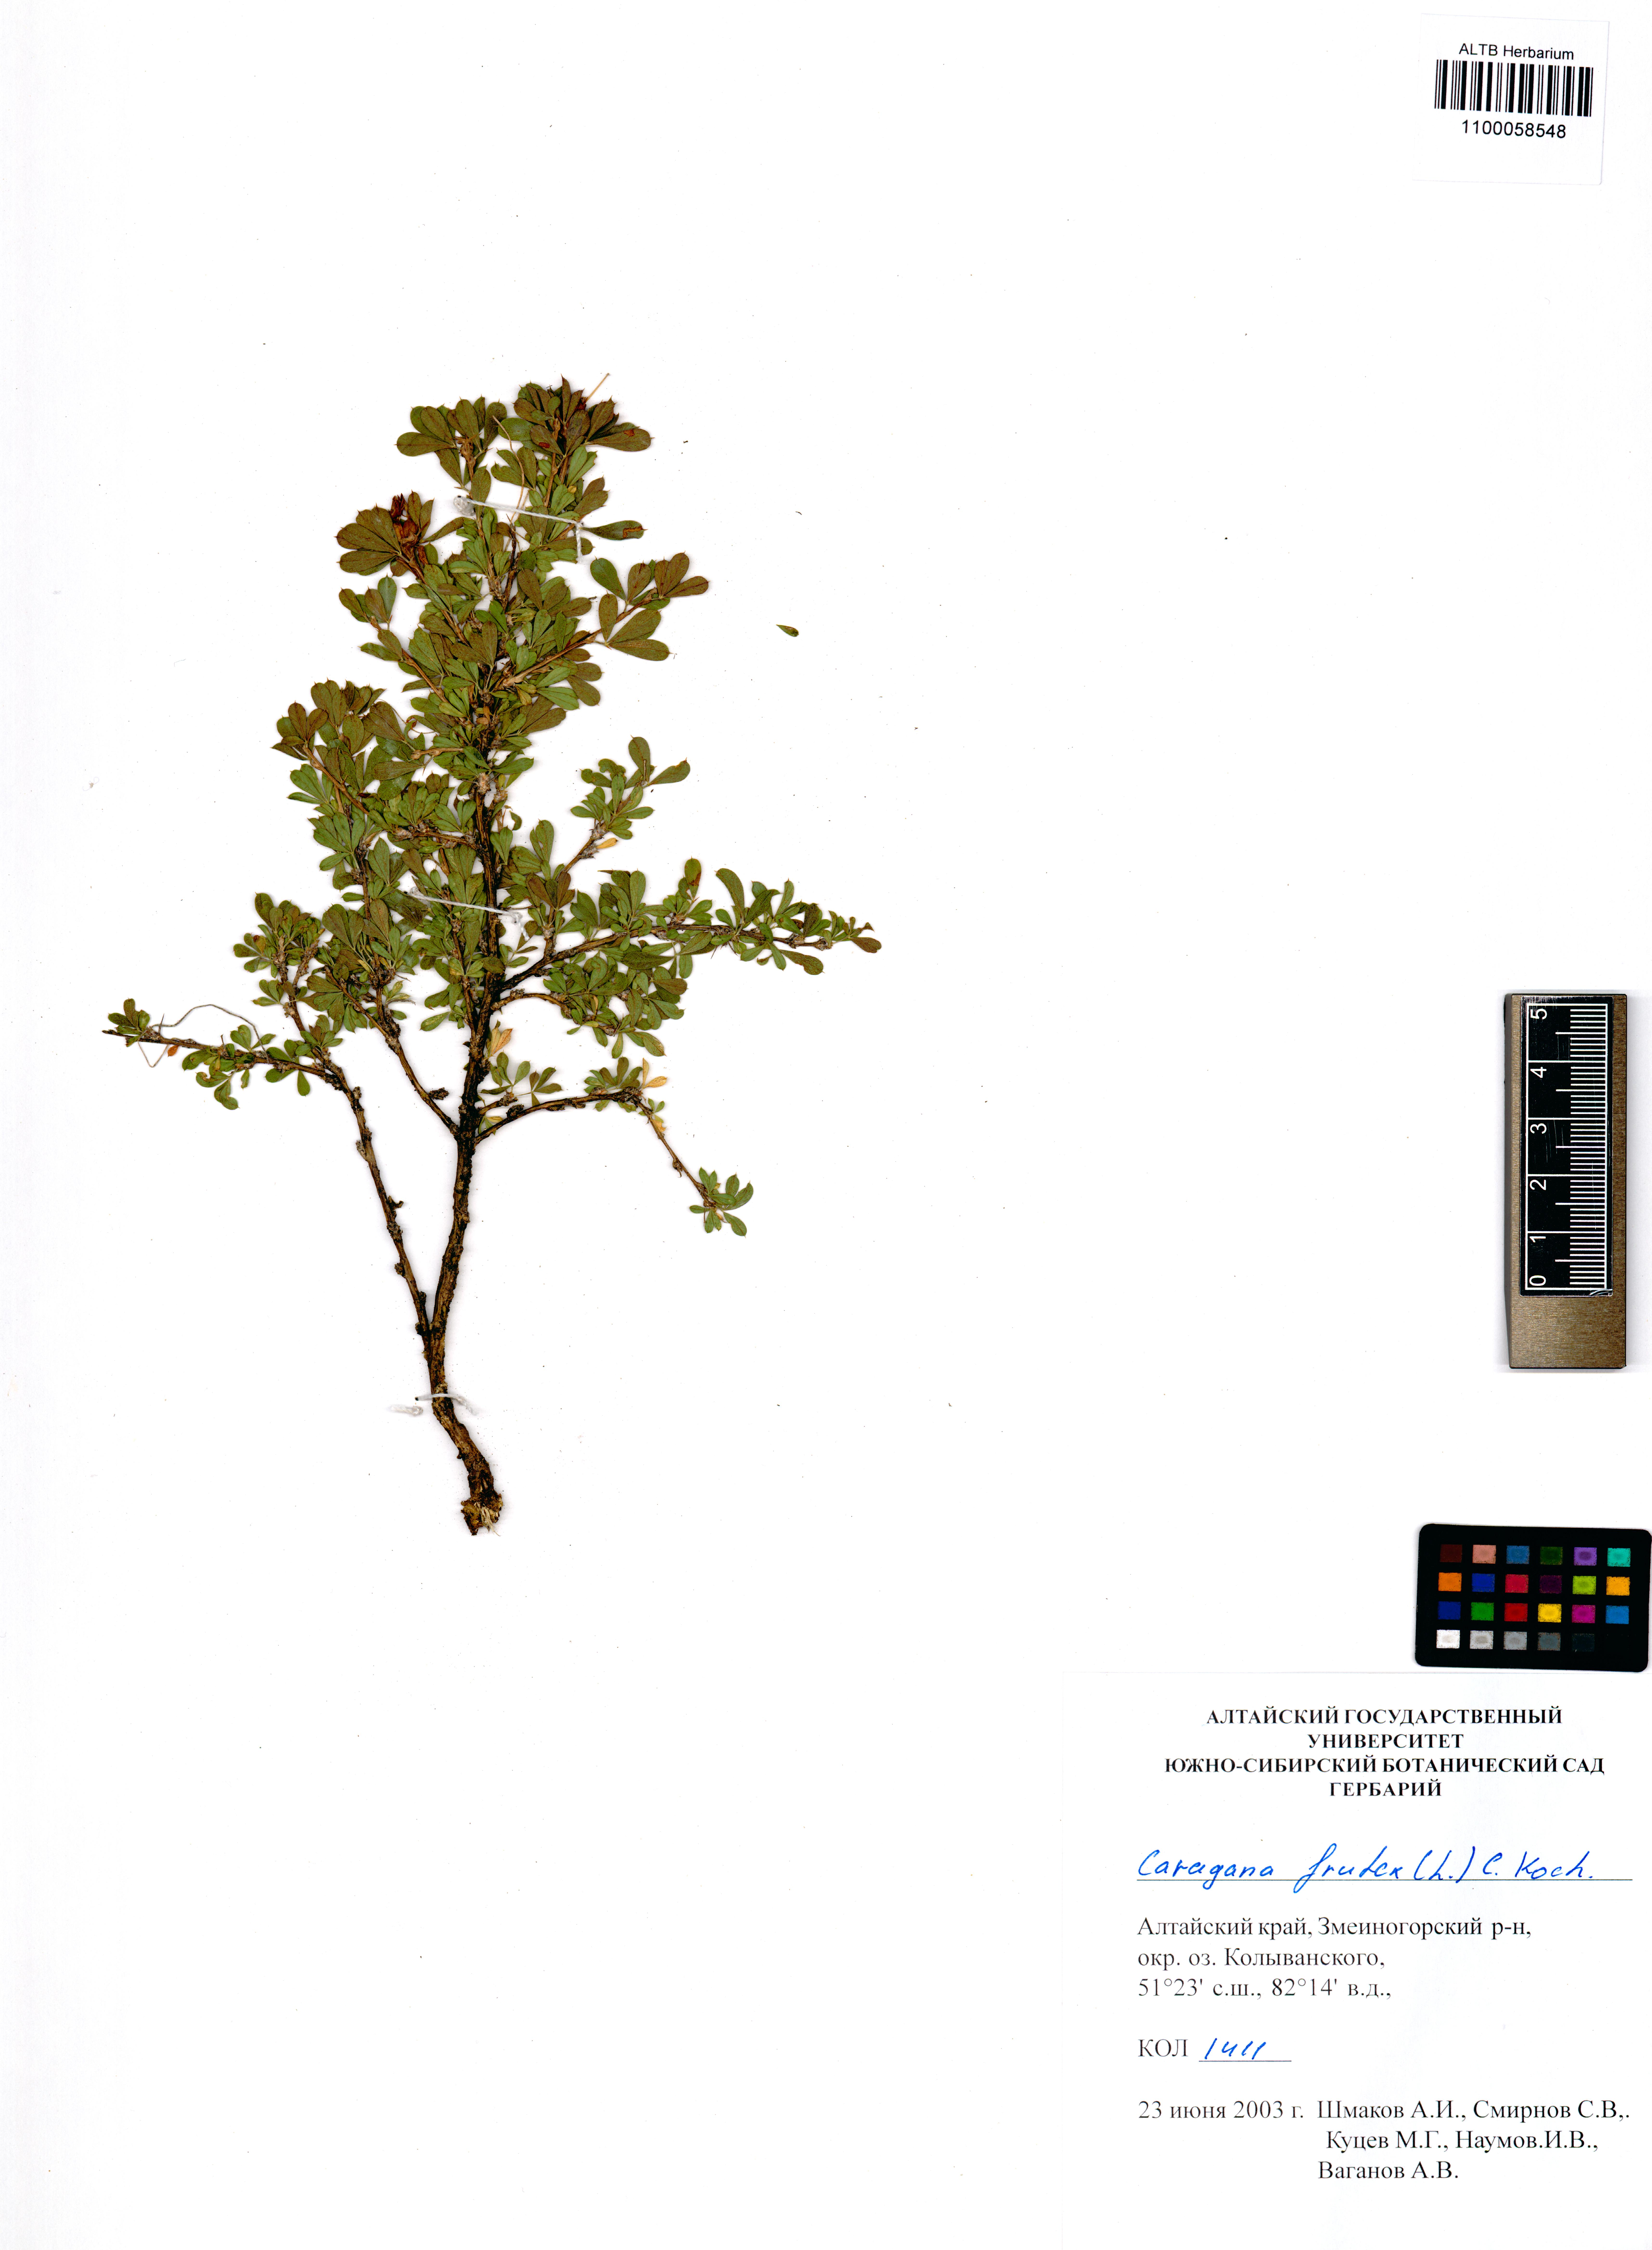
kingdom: Plantae
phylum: Tracheophyta
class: Magnoliopsida
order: Fabales
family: Fabaceae
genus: Caragana
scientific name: Caragana frutex
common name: Russian peashrub
